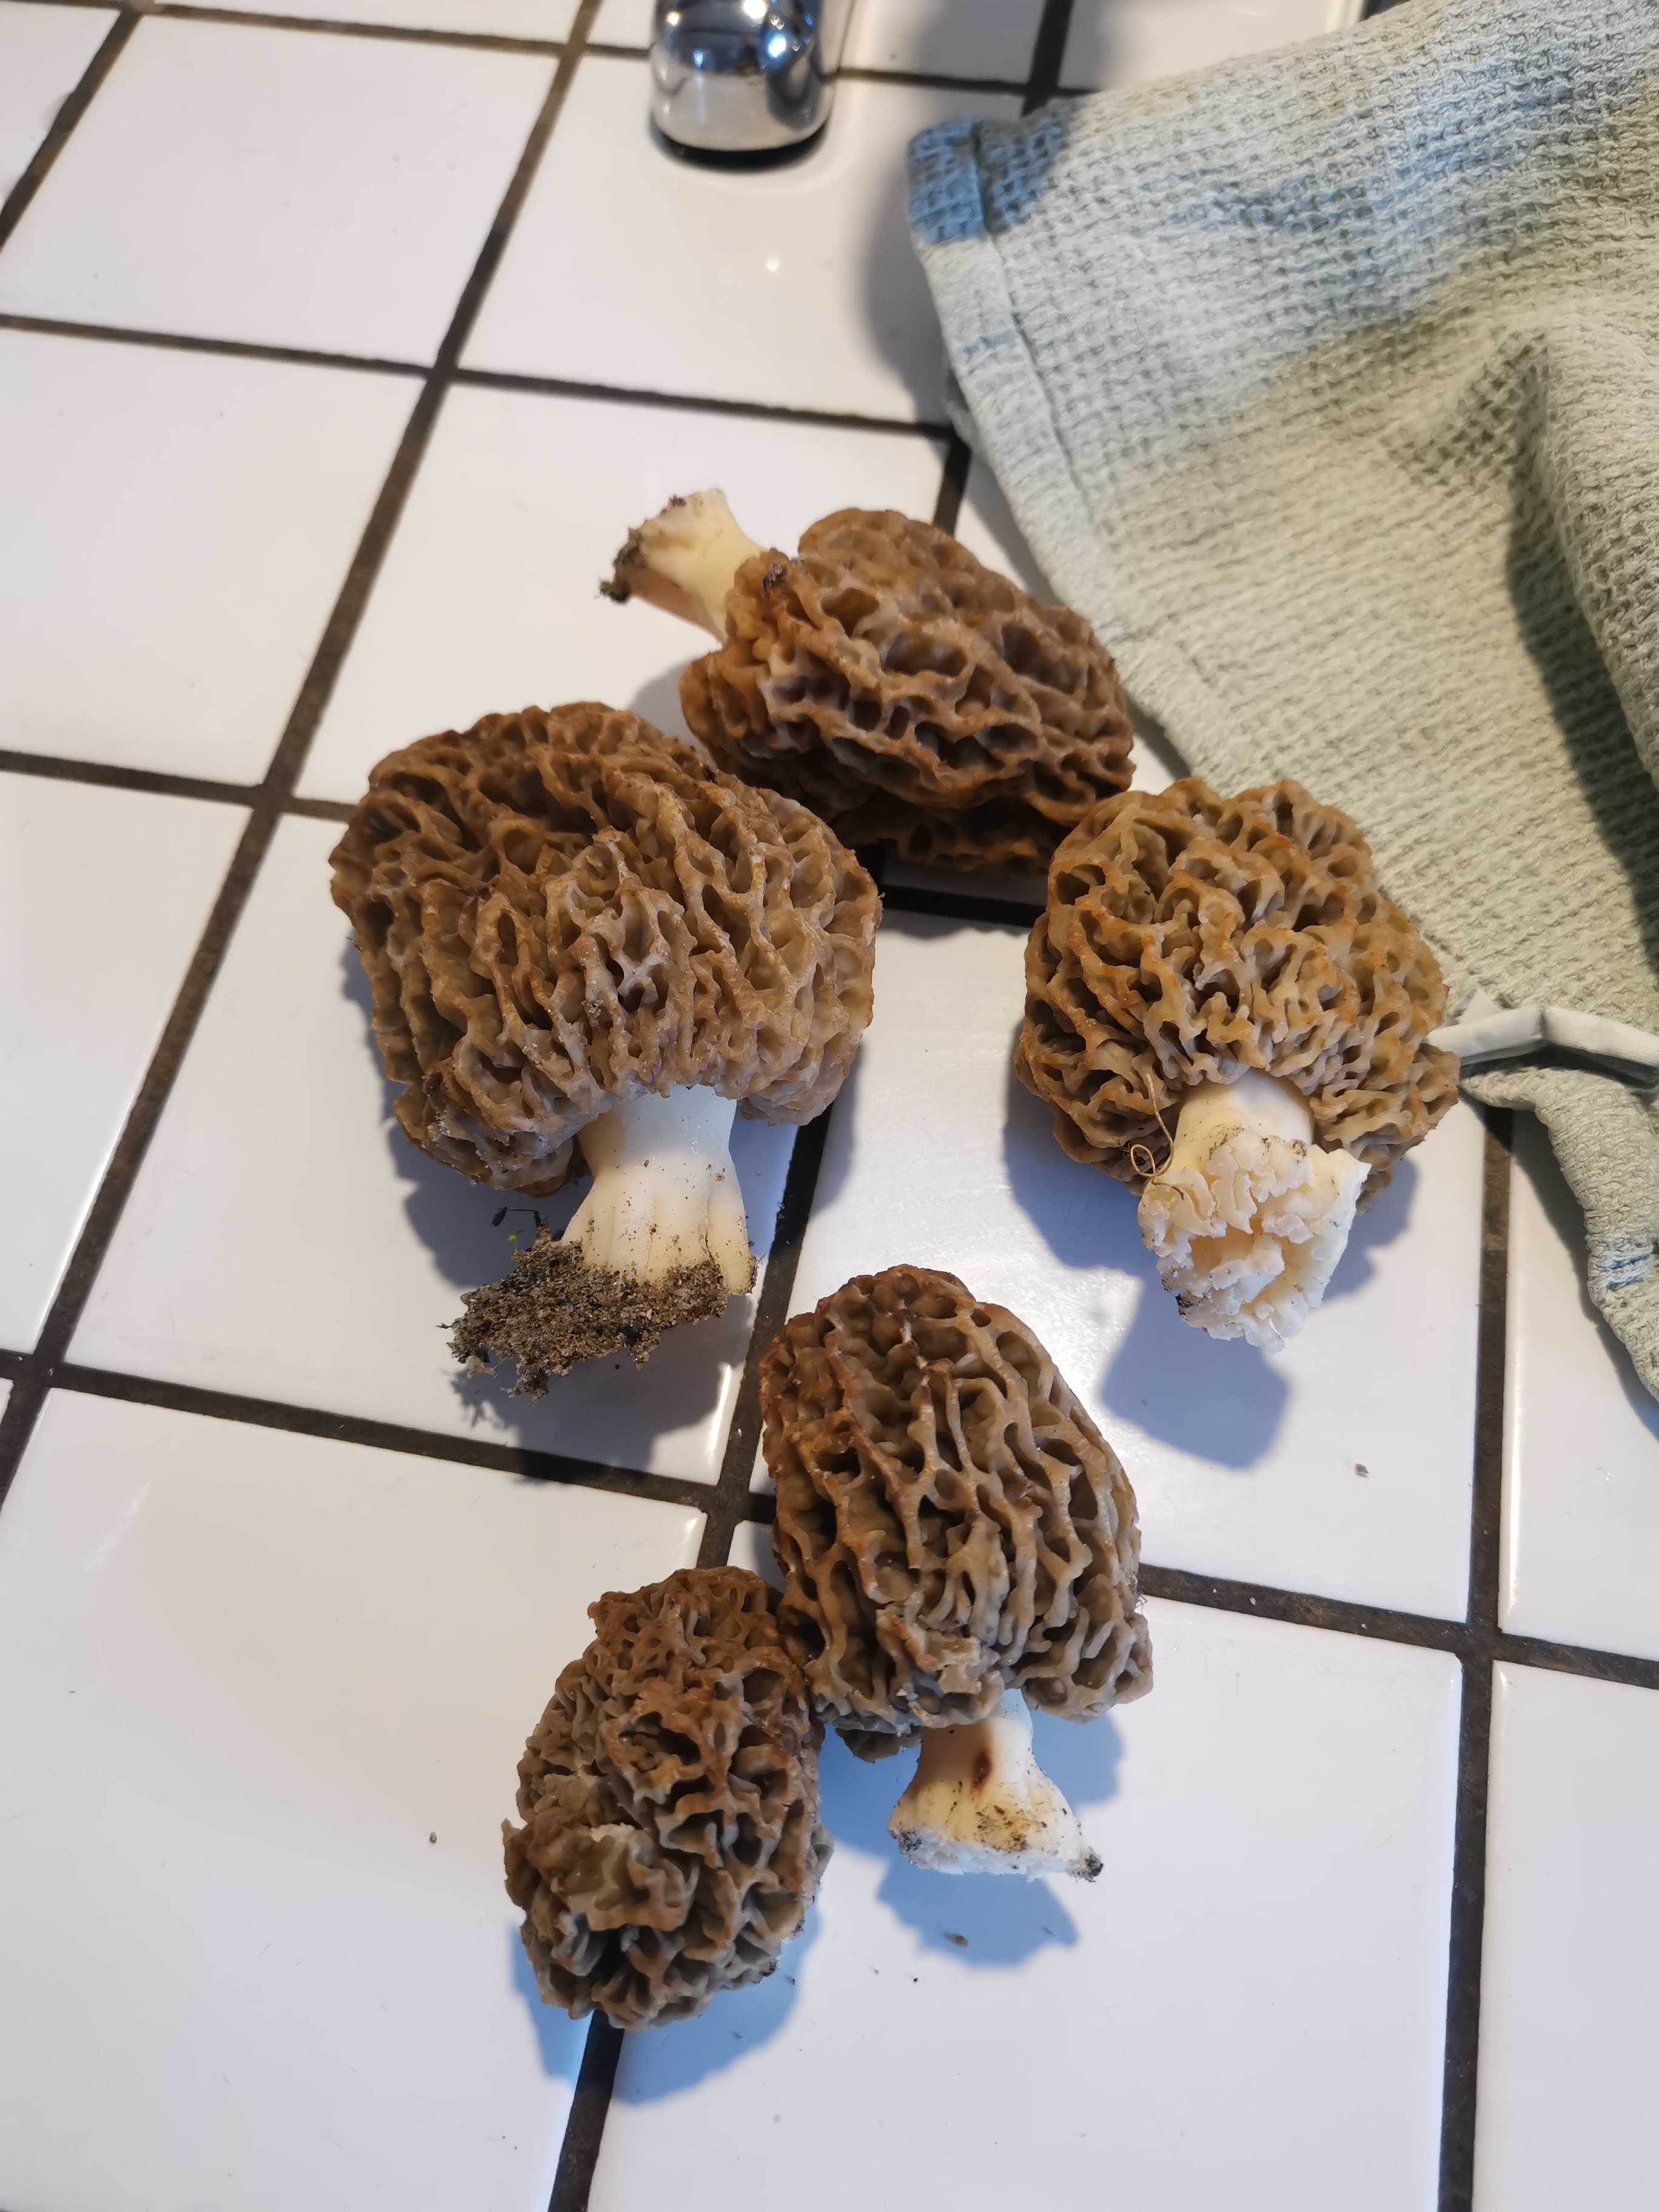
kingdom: Fungi
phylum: Ascomycota
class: Pezizomycetes
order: Pezizales
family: Morchellaceae
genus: Morchella
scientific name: Morchella esculenta
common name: almindelig morkel
